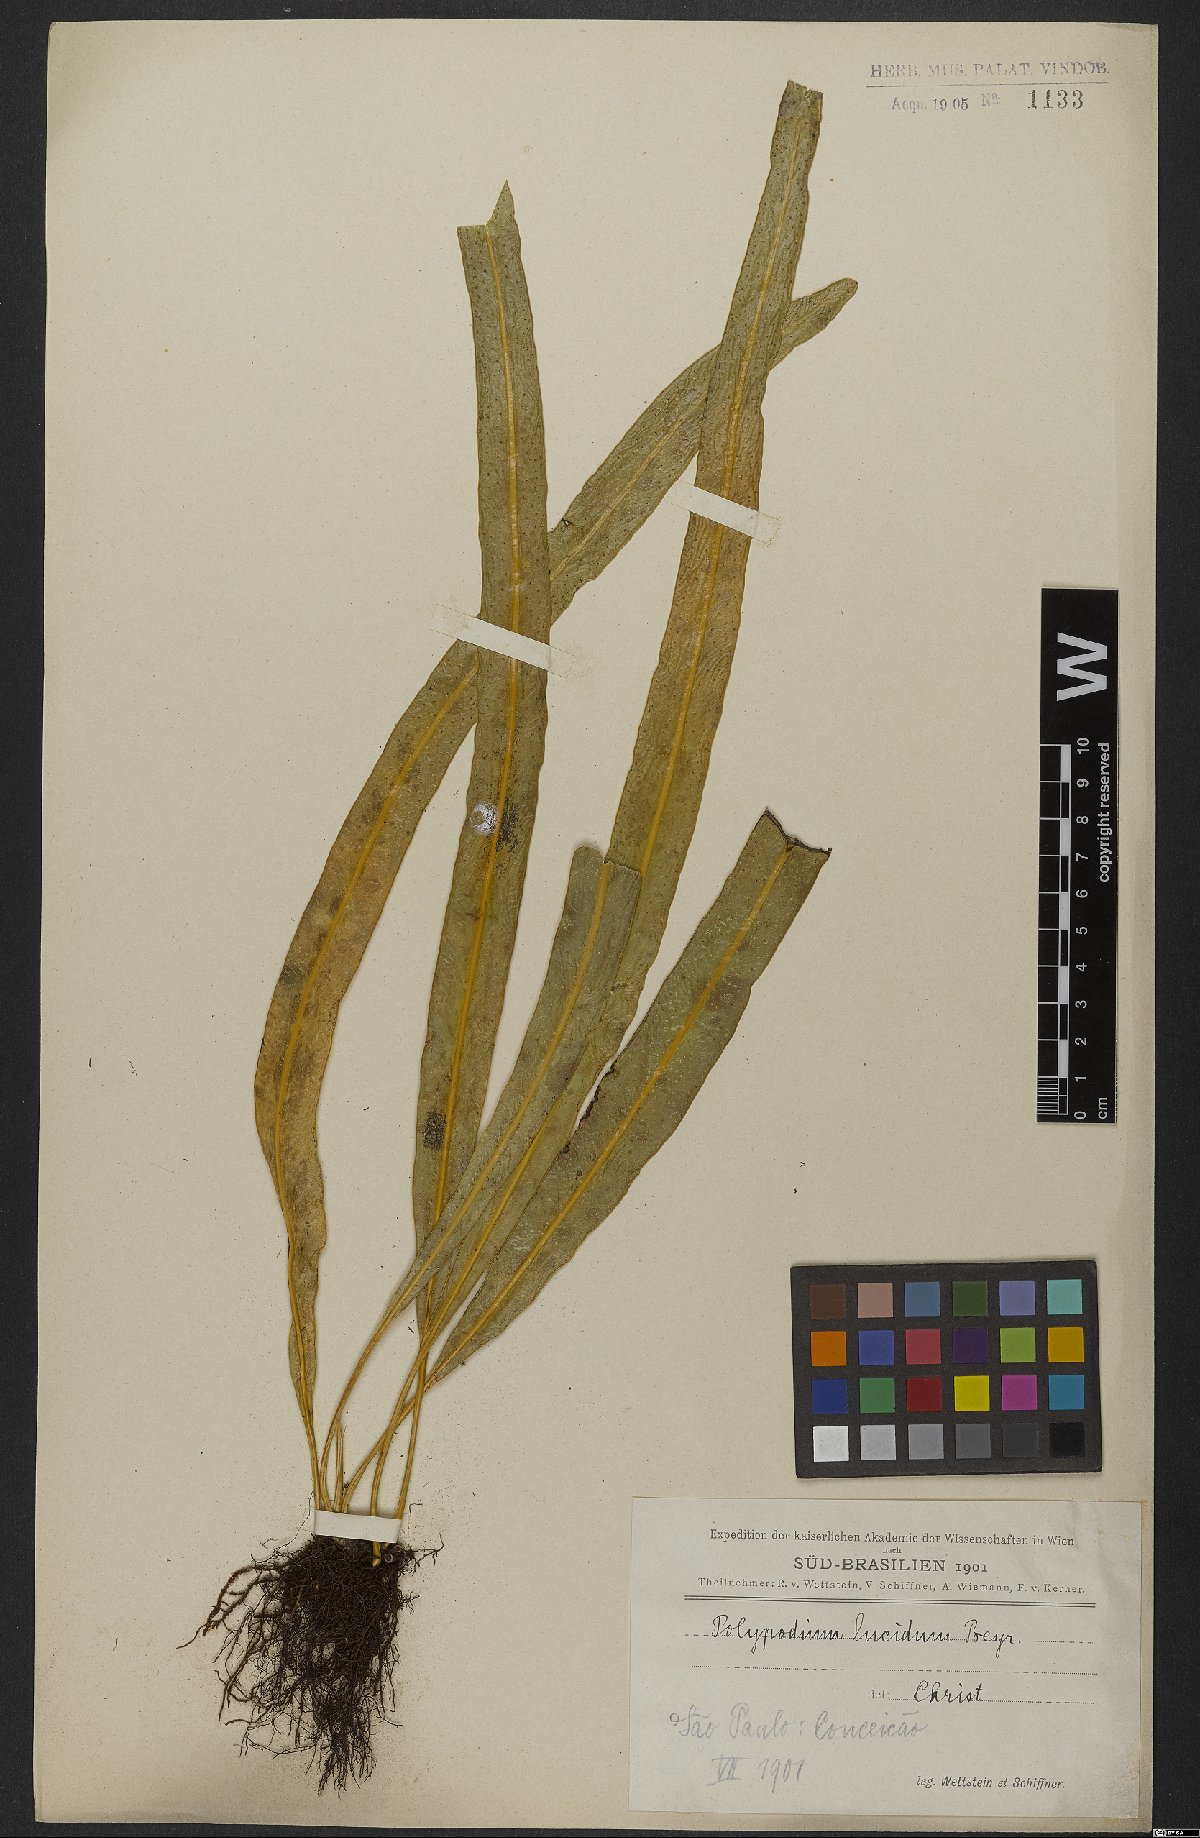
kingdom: Plantae
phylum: Tracheophyta
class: Polypodiopsida
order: Polypodiales
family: Polypodiaceae
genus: Campyloneurum
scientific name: Campyloneurum angustifolium
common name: Narrow-leaf strap fern
